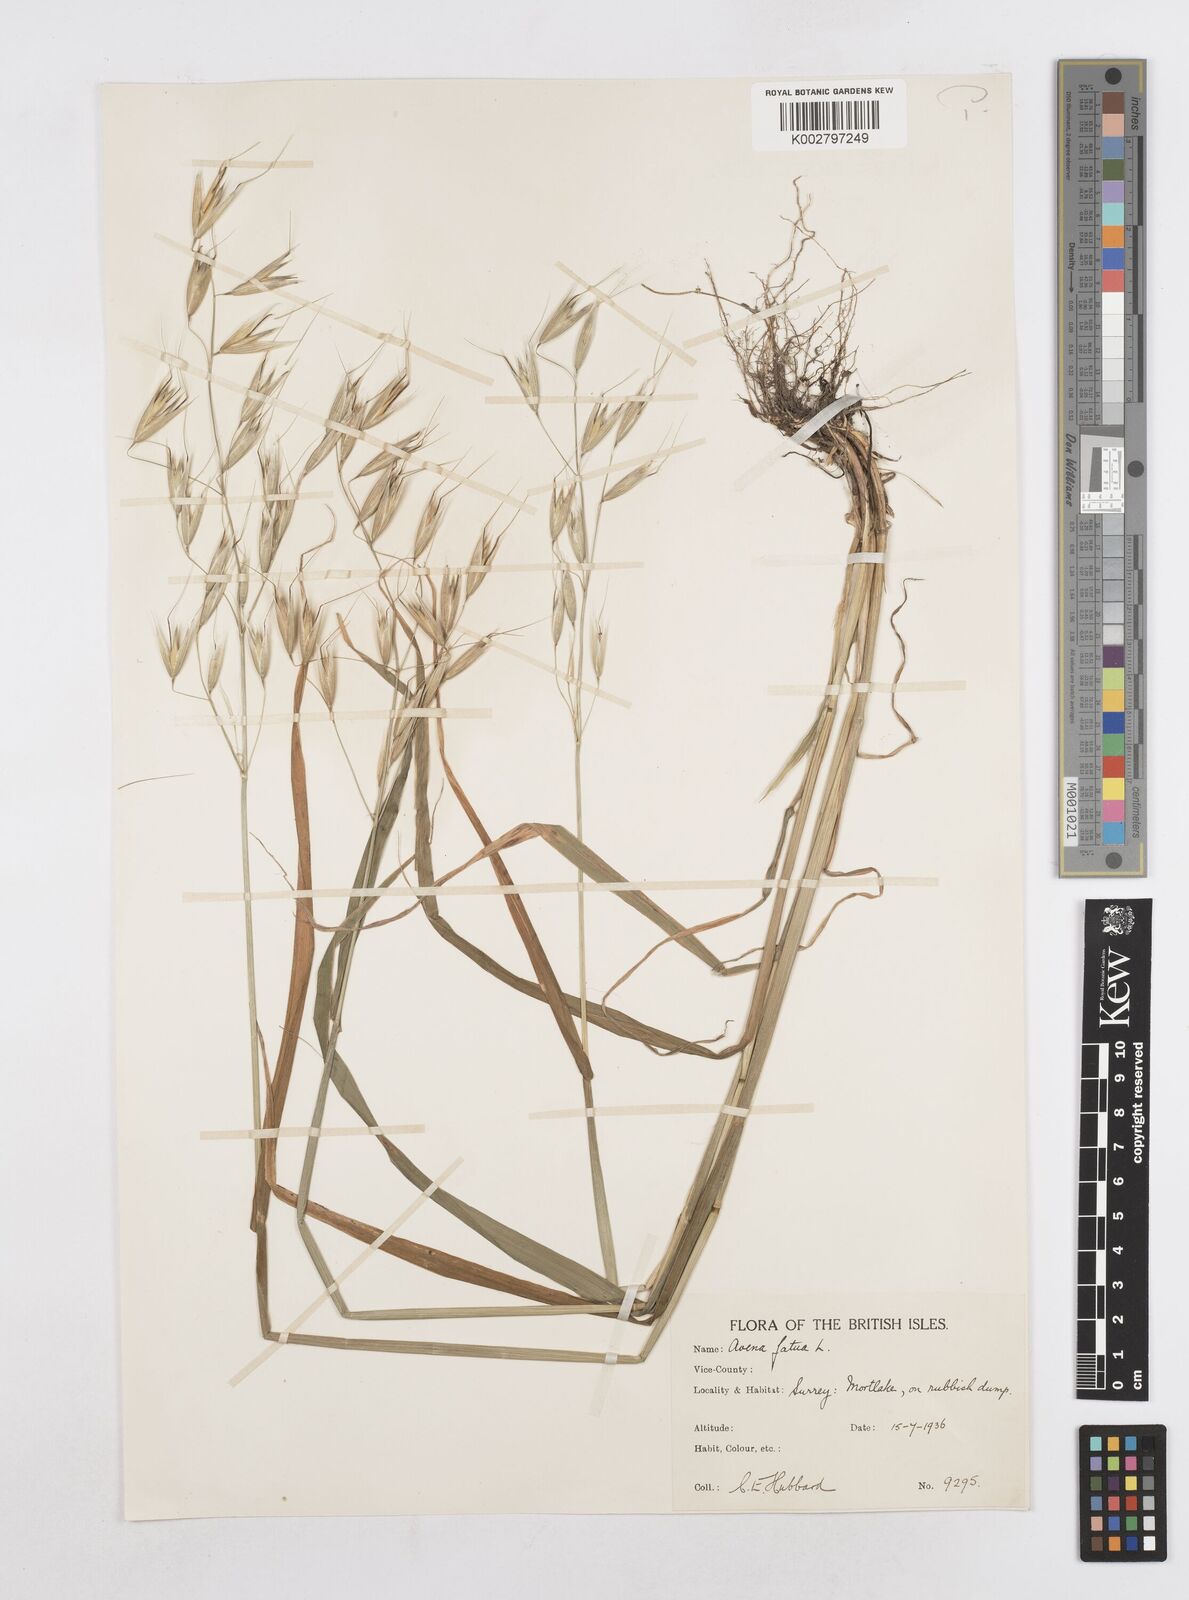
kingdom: Plantae
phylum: Tracheophyta
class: Liliopsida
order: Poales
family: Poaceae
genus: Avena
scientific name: Avena fatua
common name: Wild oat
